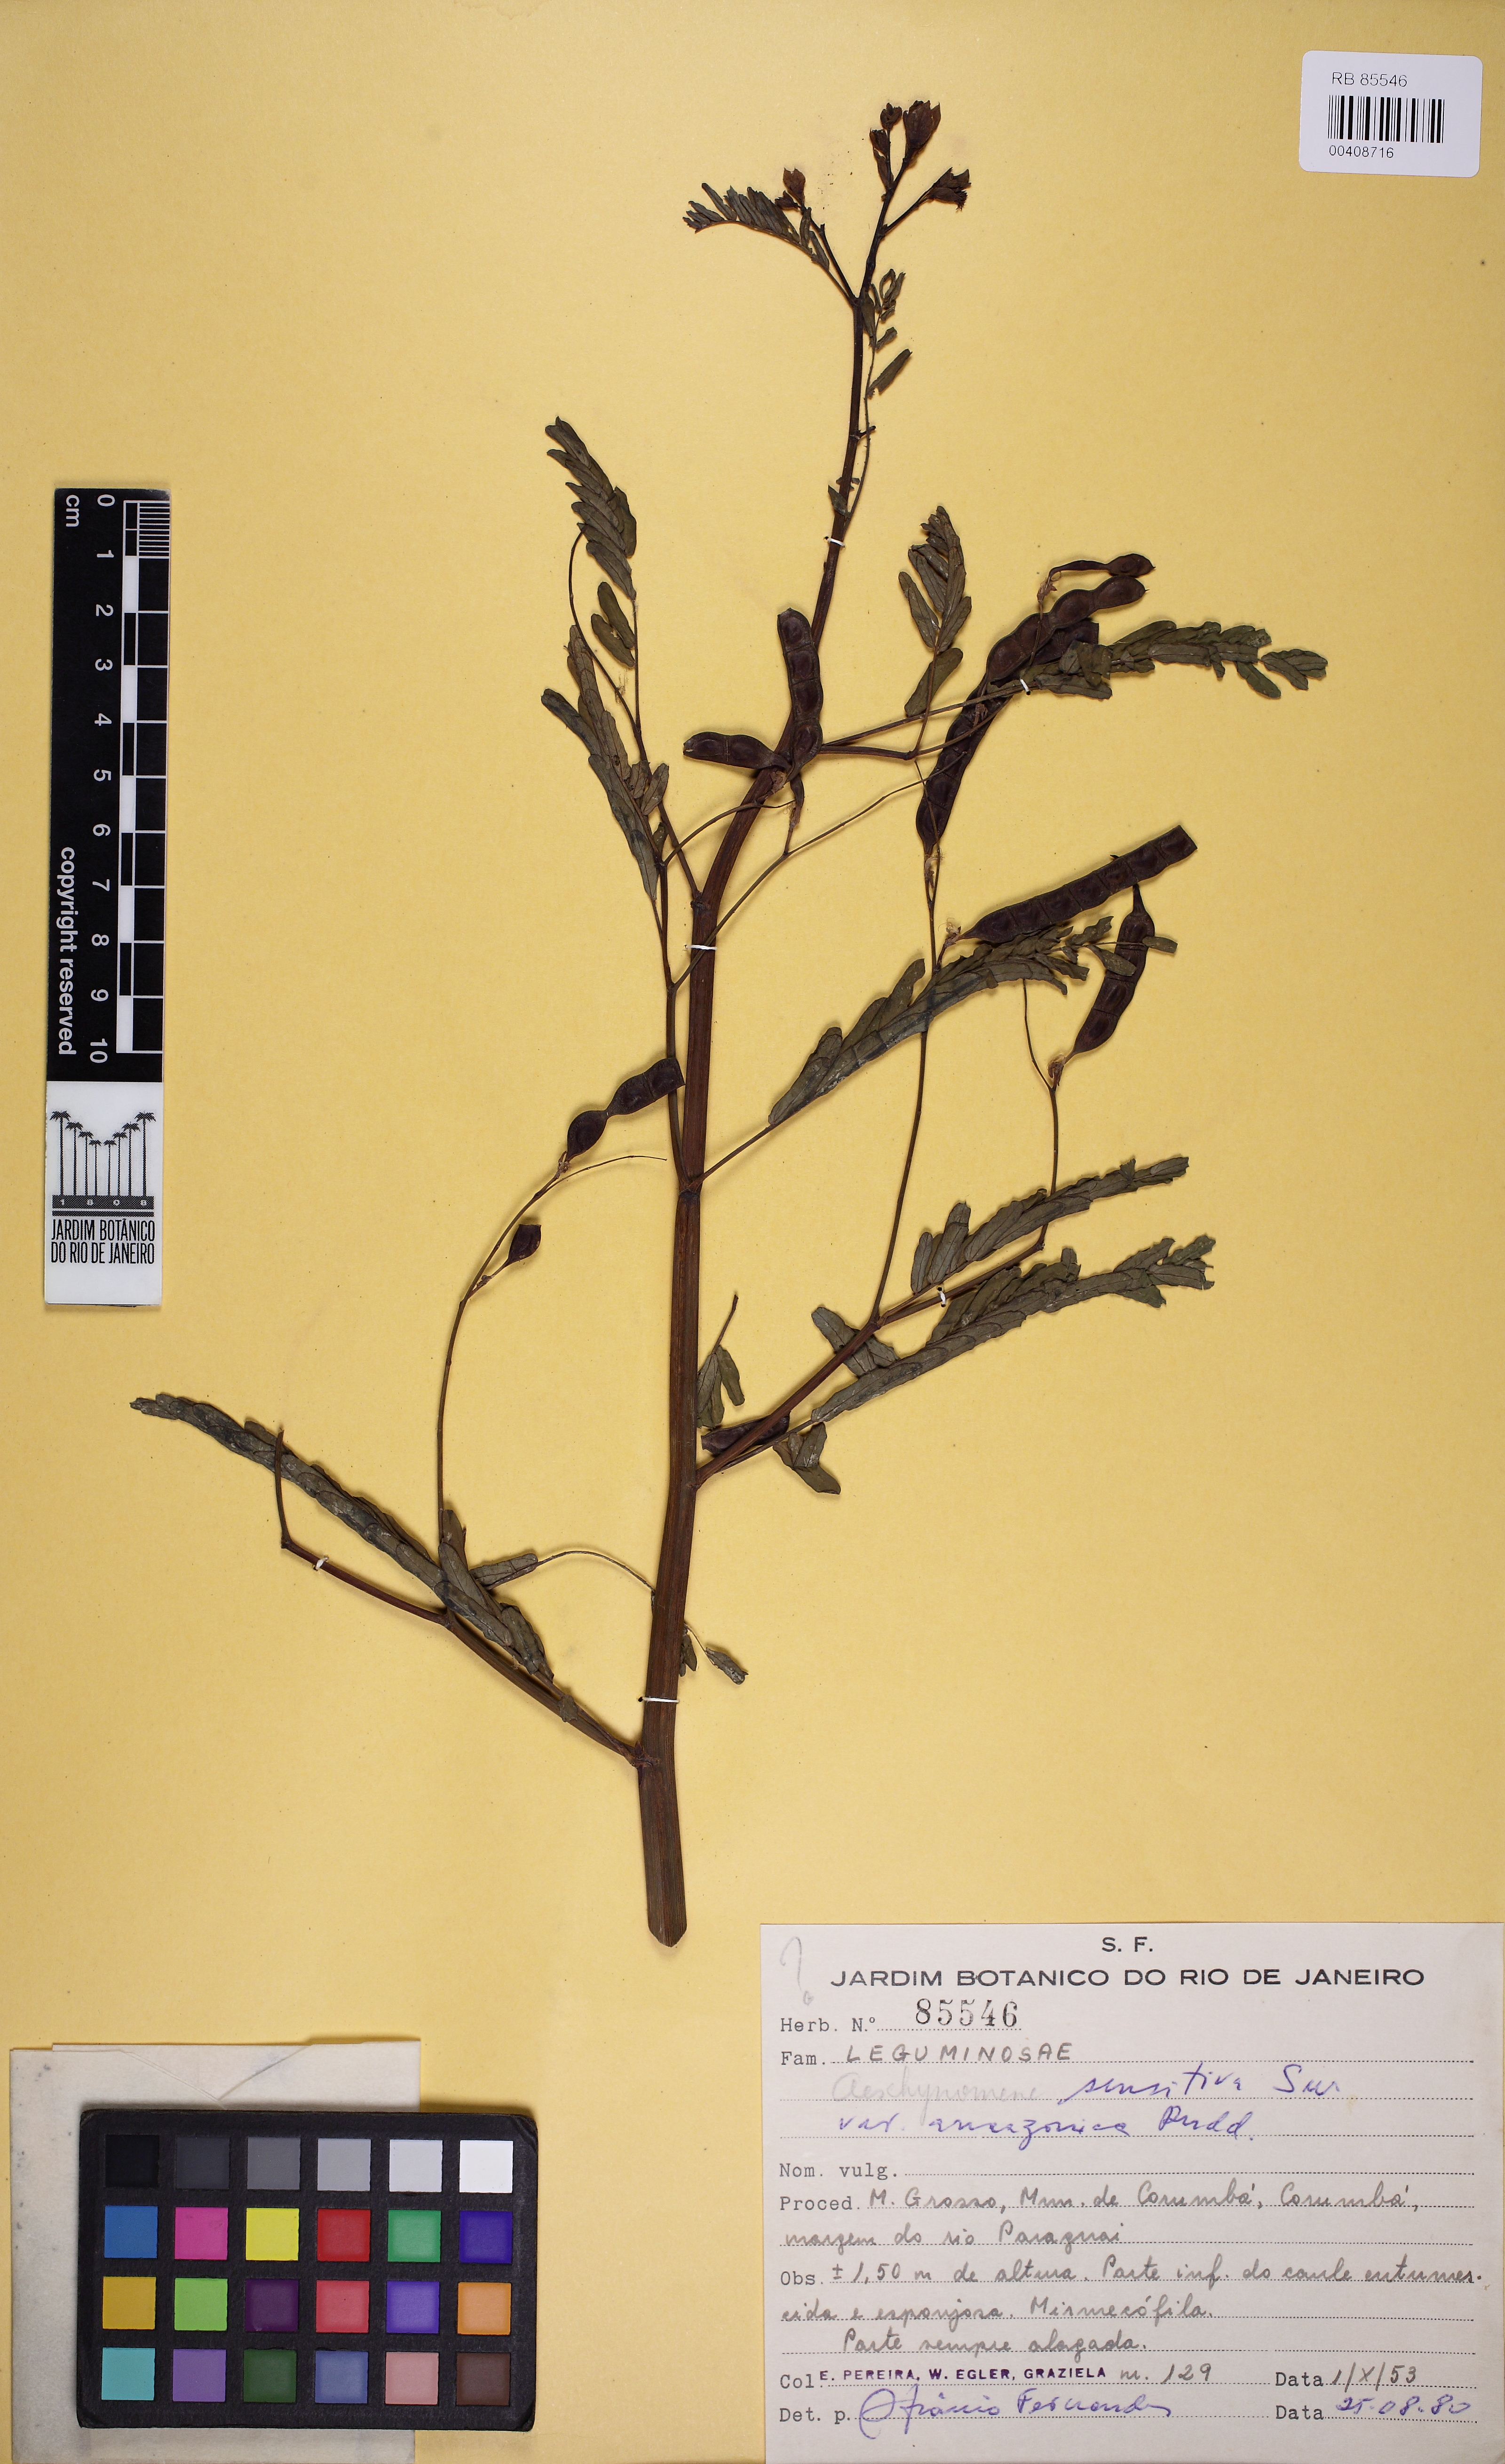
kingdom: Plantae
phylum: Tracheophyta
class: Magnoliopsida
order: Fabales
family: Fabaceae
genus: Aeschynomene
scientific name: Aeschynomene sensitiva
